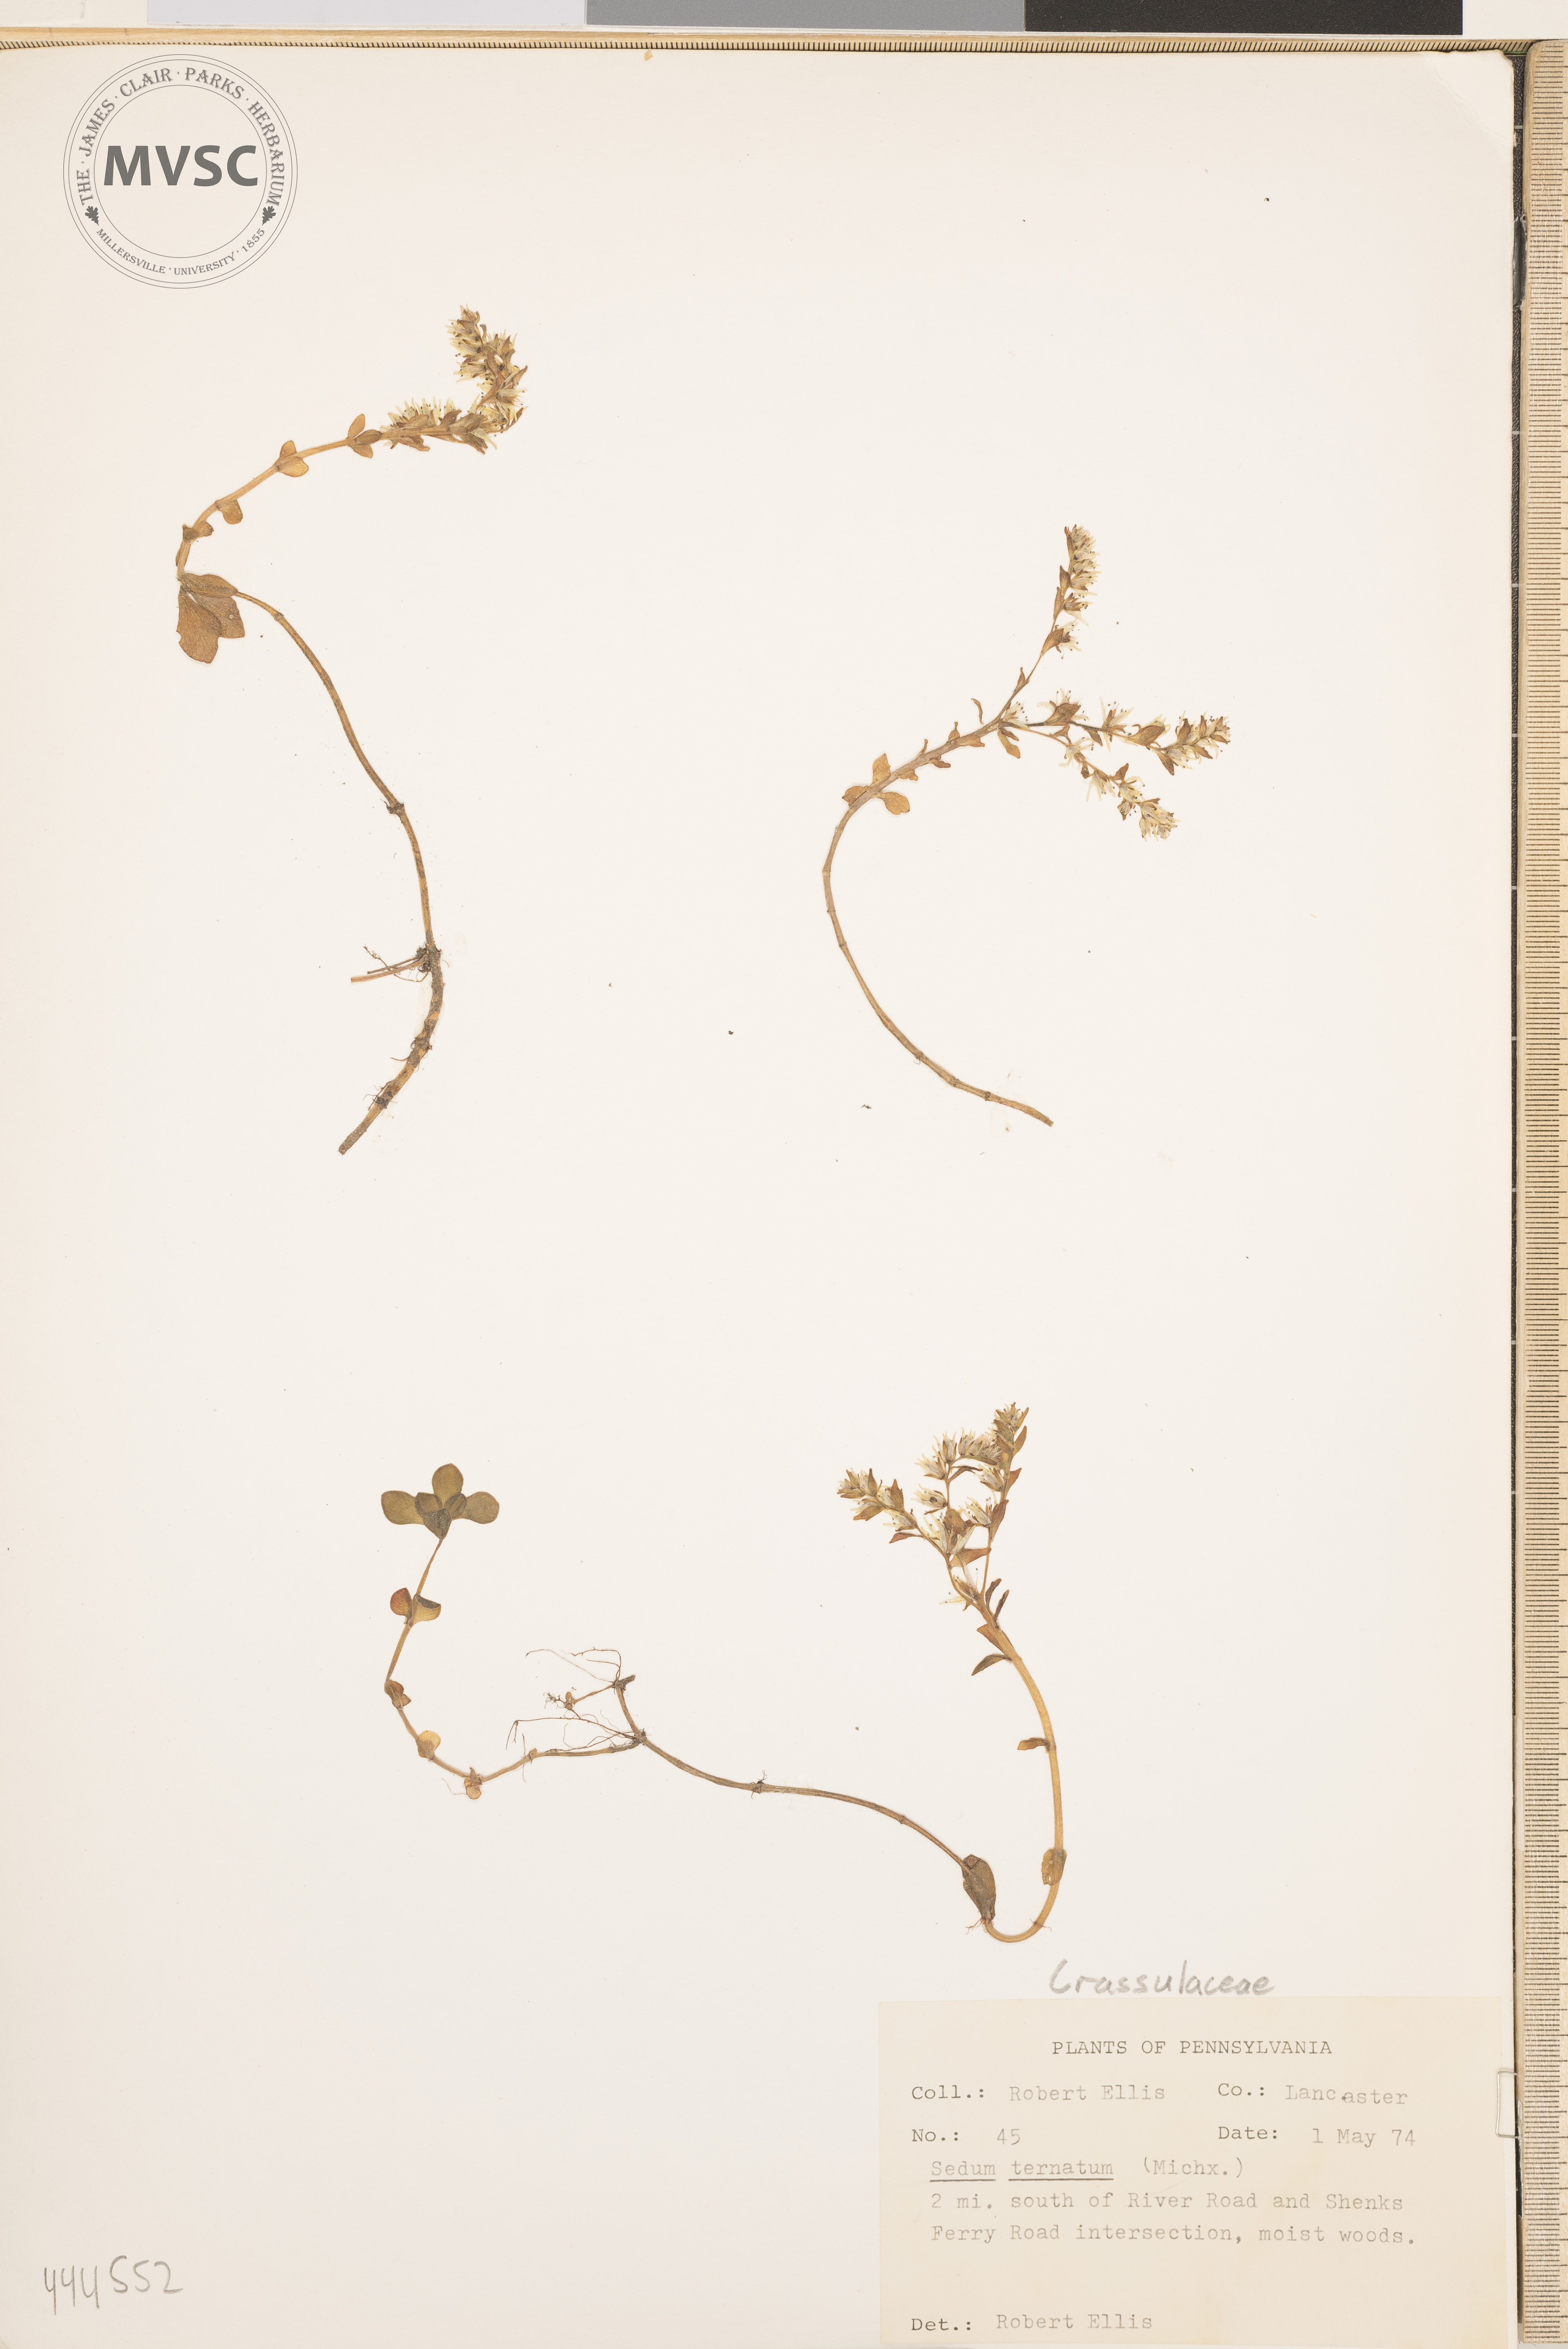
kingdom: Plantae
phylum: Tracheophyta
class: Magnoliopsida
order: Saxifragales
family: Crassulaceae
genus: Sedum
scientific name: Sedum ternatum
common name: Wild stonecrop
